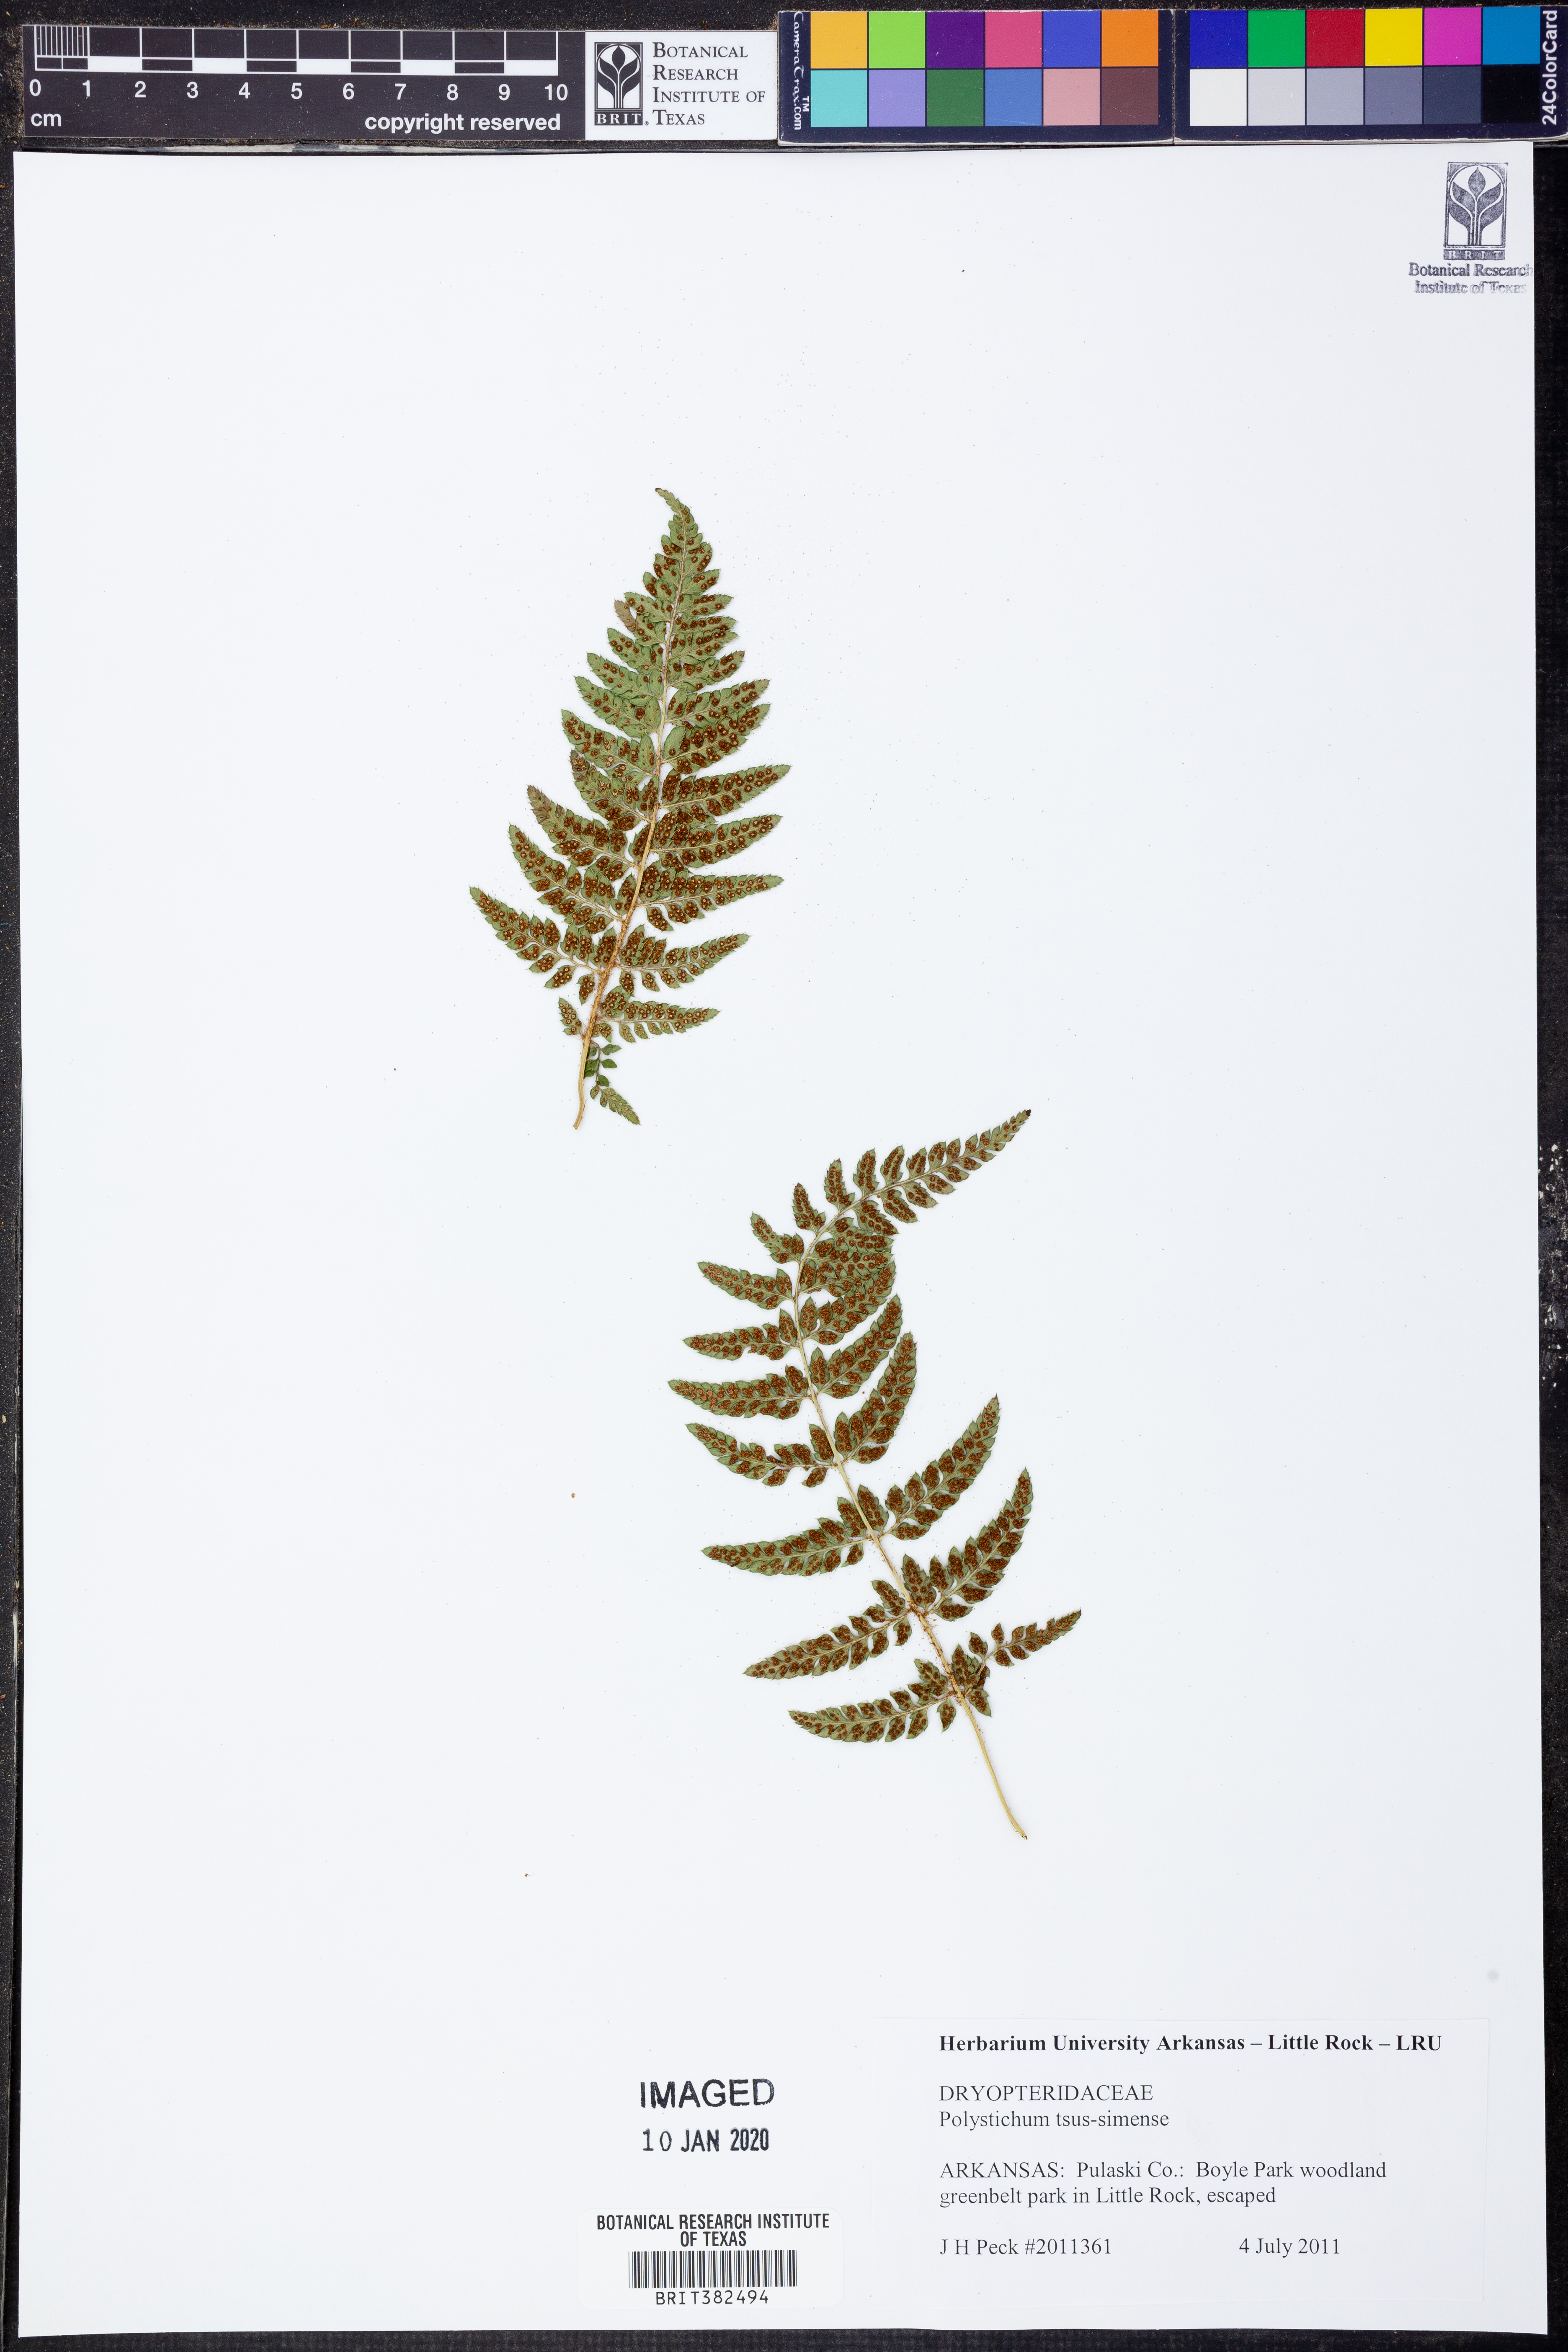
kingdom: Plantae
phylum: Tracheophyta
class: Polypodiopsida
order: Polypodiales
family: Dryopteridaceae
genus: Polystichum
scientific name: Polystichum luctuosum
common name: Korean rockfern
